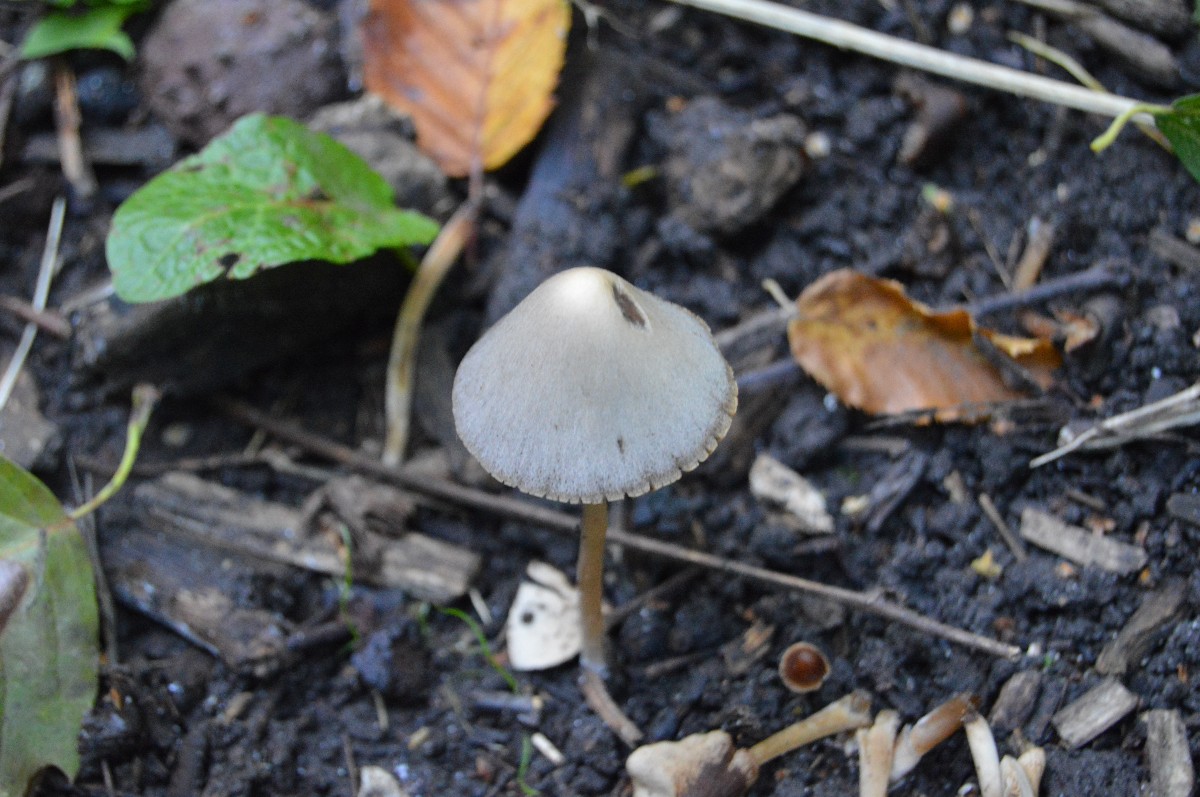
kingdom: Fungi
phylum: Basidiomycota
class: Agaricomycetes
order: Agaricales
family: Psathyrellaceae
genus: Parasola
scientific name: Parasola conopilea
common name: kegle-hjulhat
